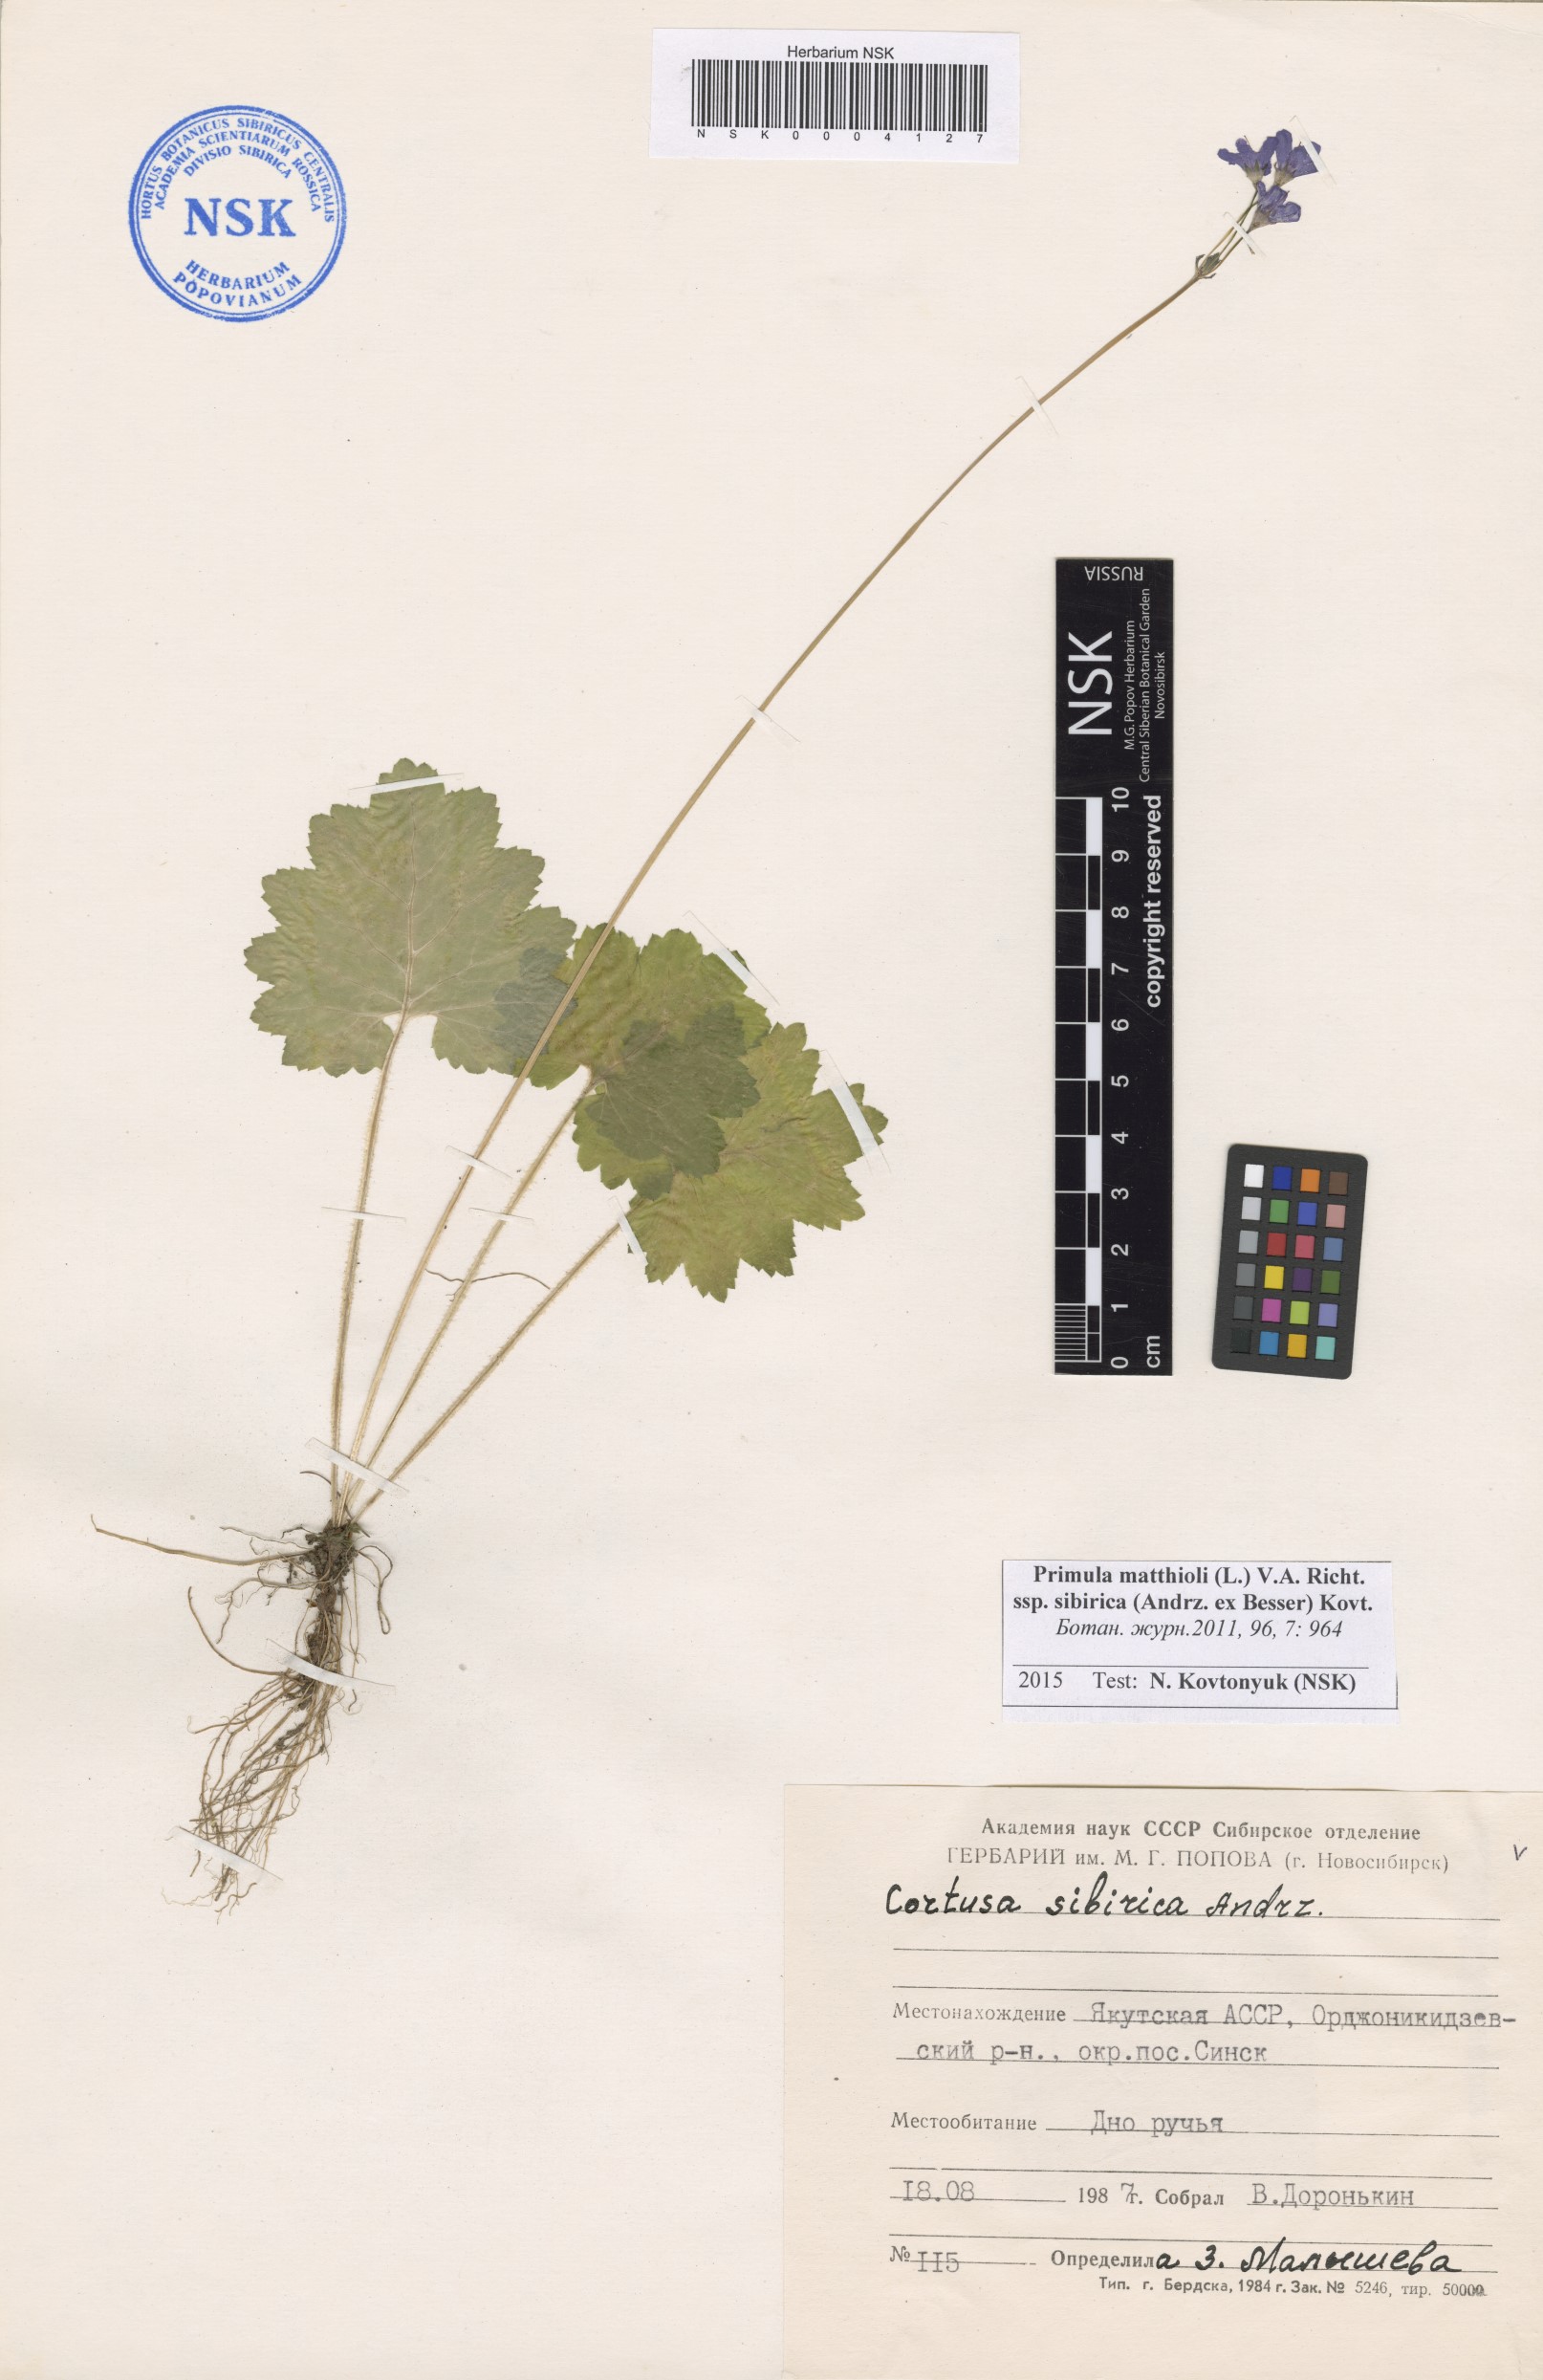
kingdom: Plantae
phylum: Tracheophyta
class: Magnoliopsida
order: Ericales
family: Primulaceae
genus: Primula
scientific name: Primula matthioli
